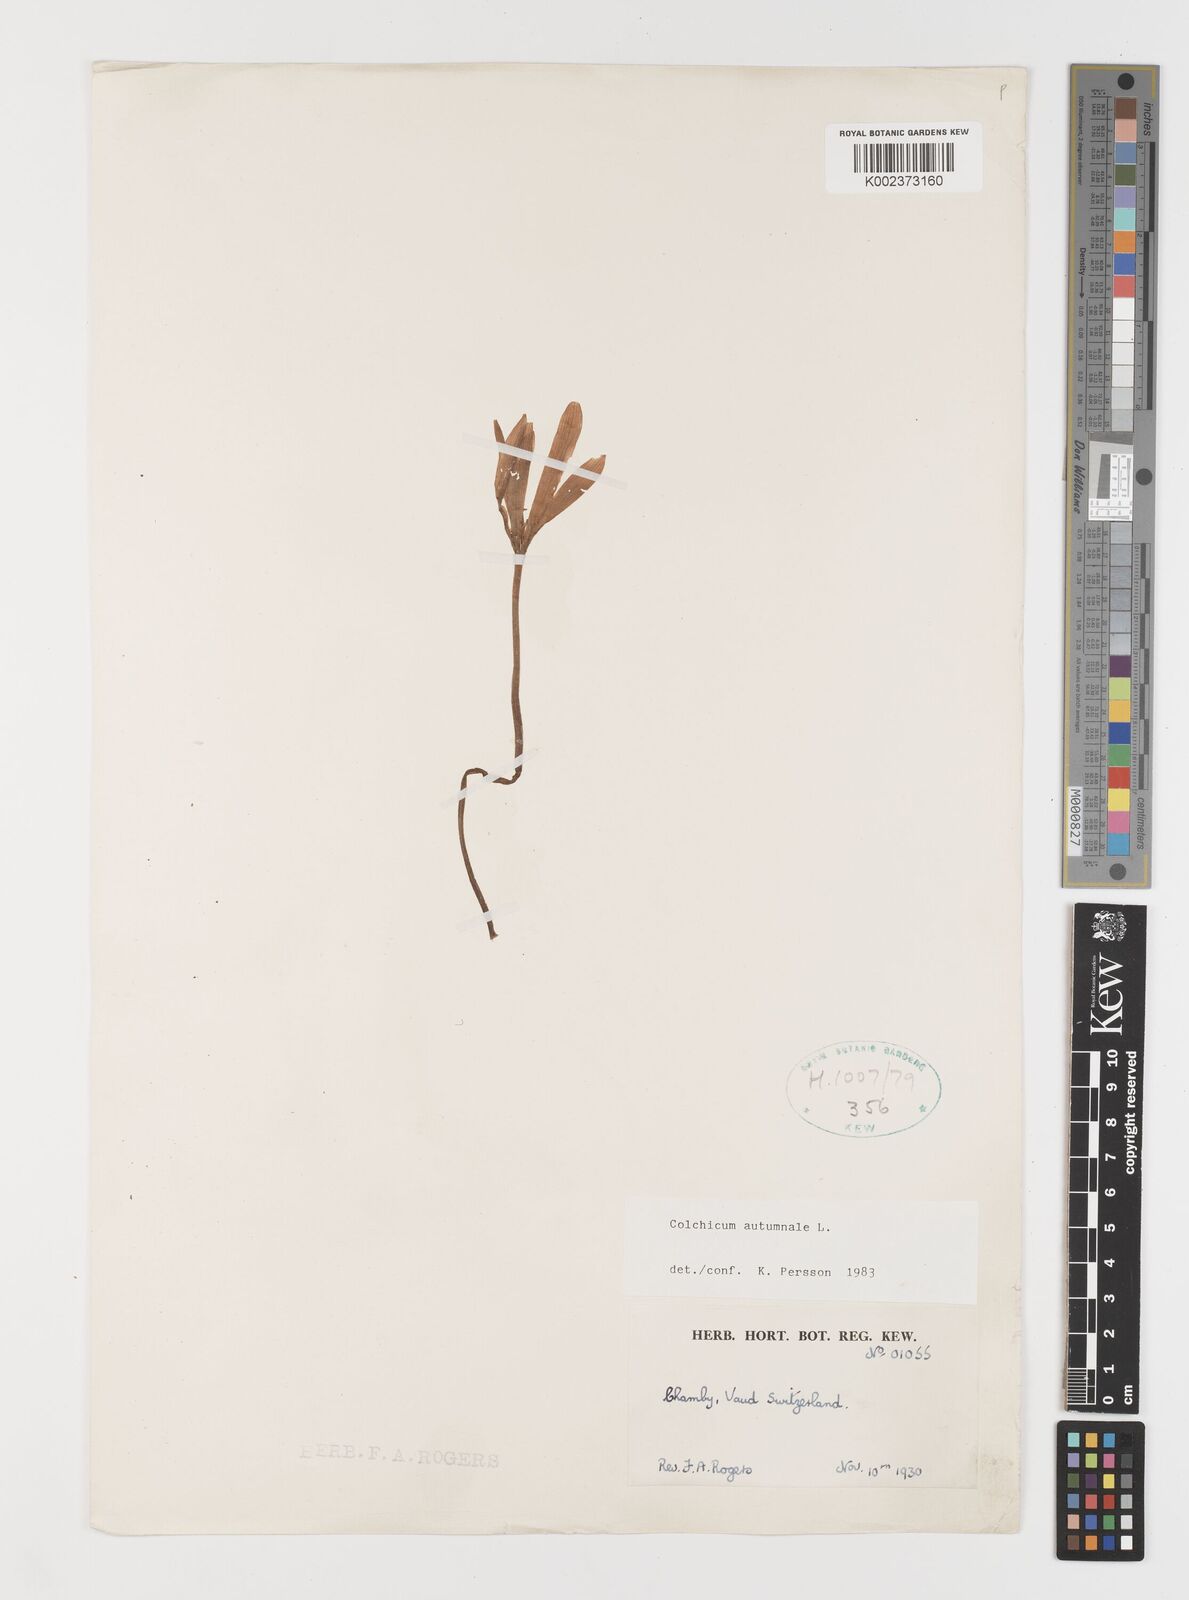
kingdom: Plantae
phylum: Tracheophyta
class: Liliopsida
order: Liliales
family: Colchicaceae
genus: Colchicum
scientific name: Colchicum autumnale
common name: Autumn crocus
